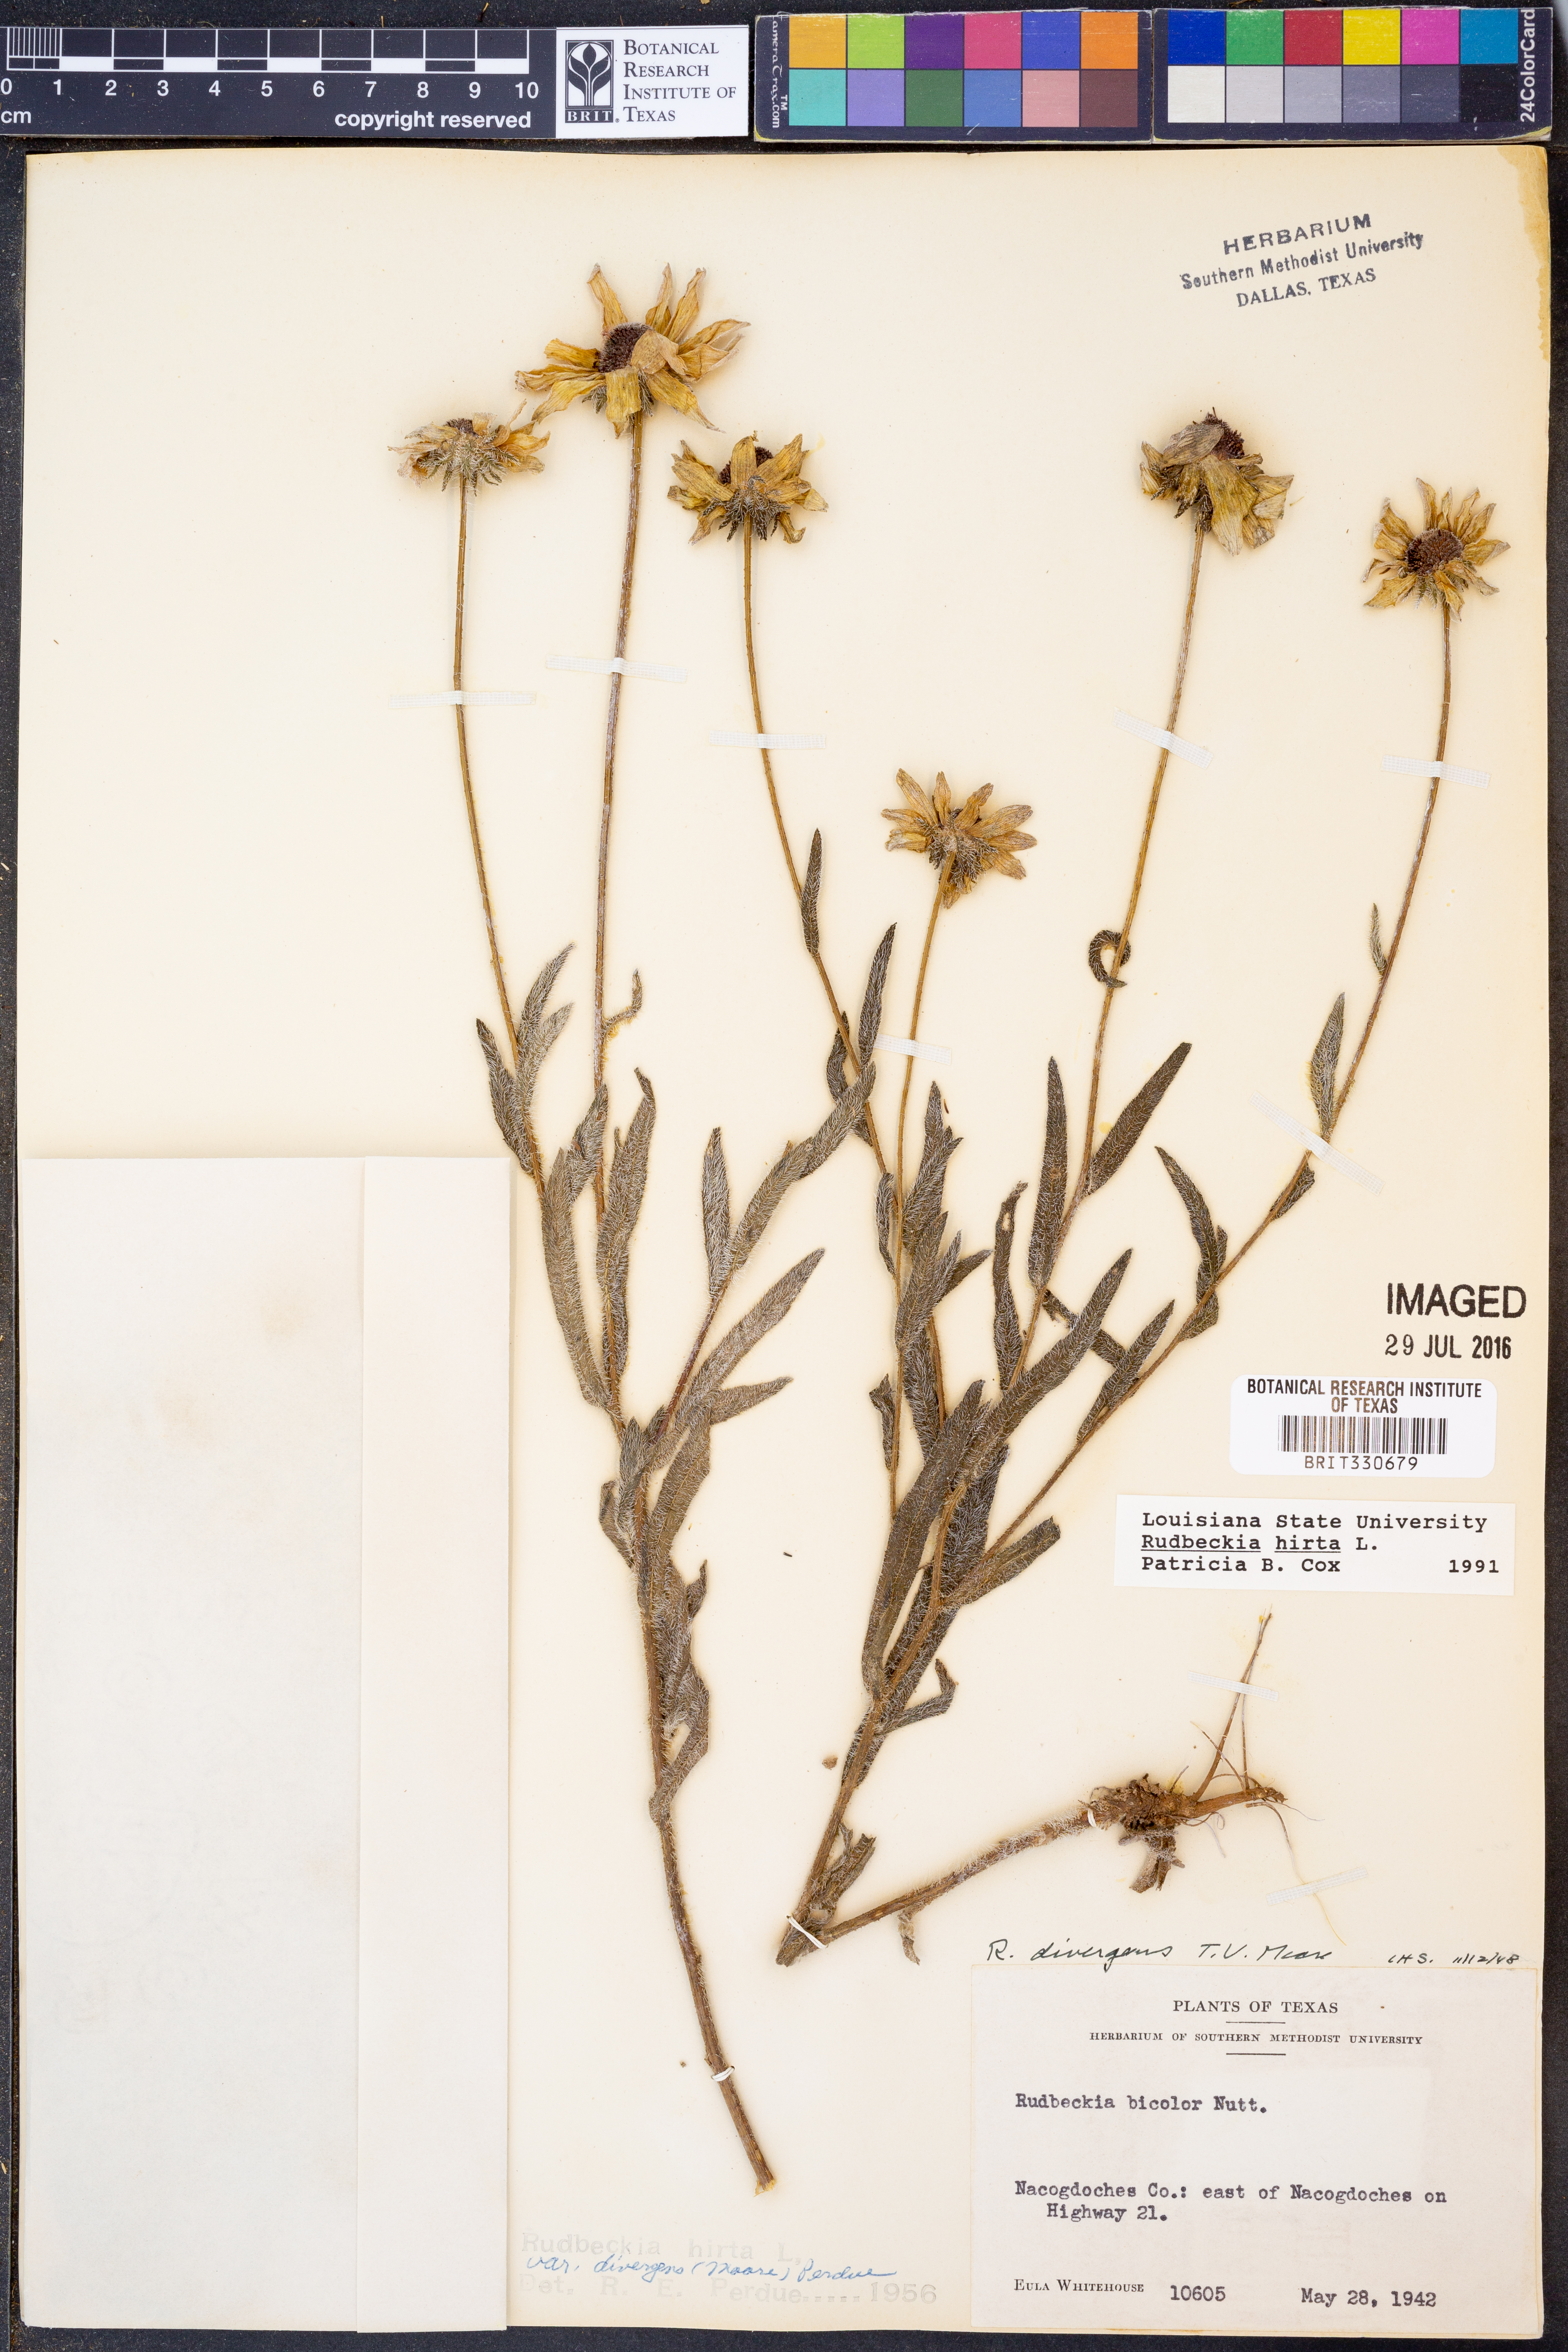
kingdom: Plantae
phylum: Tracheophyta
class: Magnoliopsida
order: Asterales
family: Asteraceae
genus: Rudbeckia
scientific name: Rudbeckia hirta
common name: Black-eyed-susan
